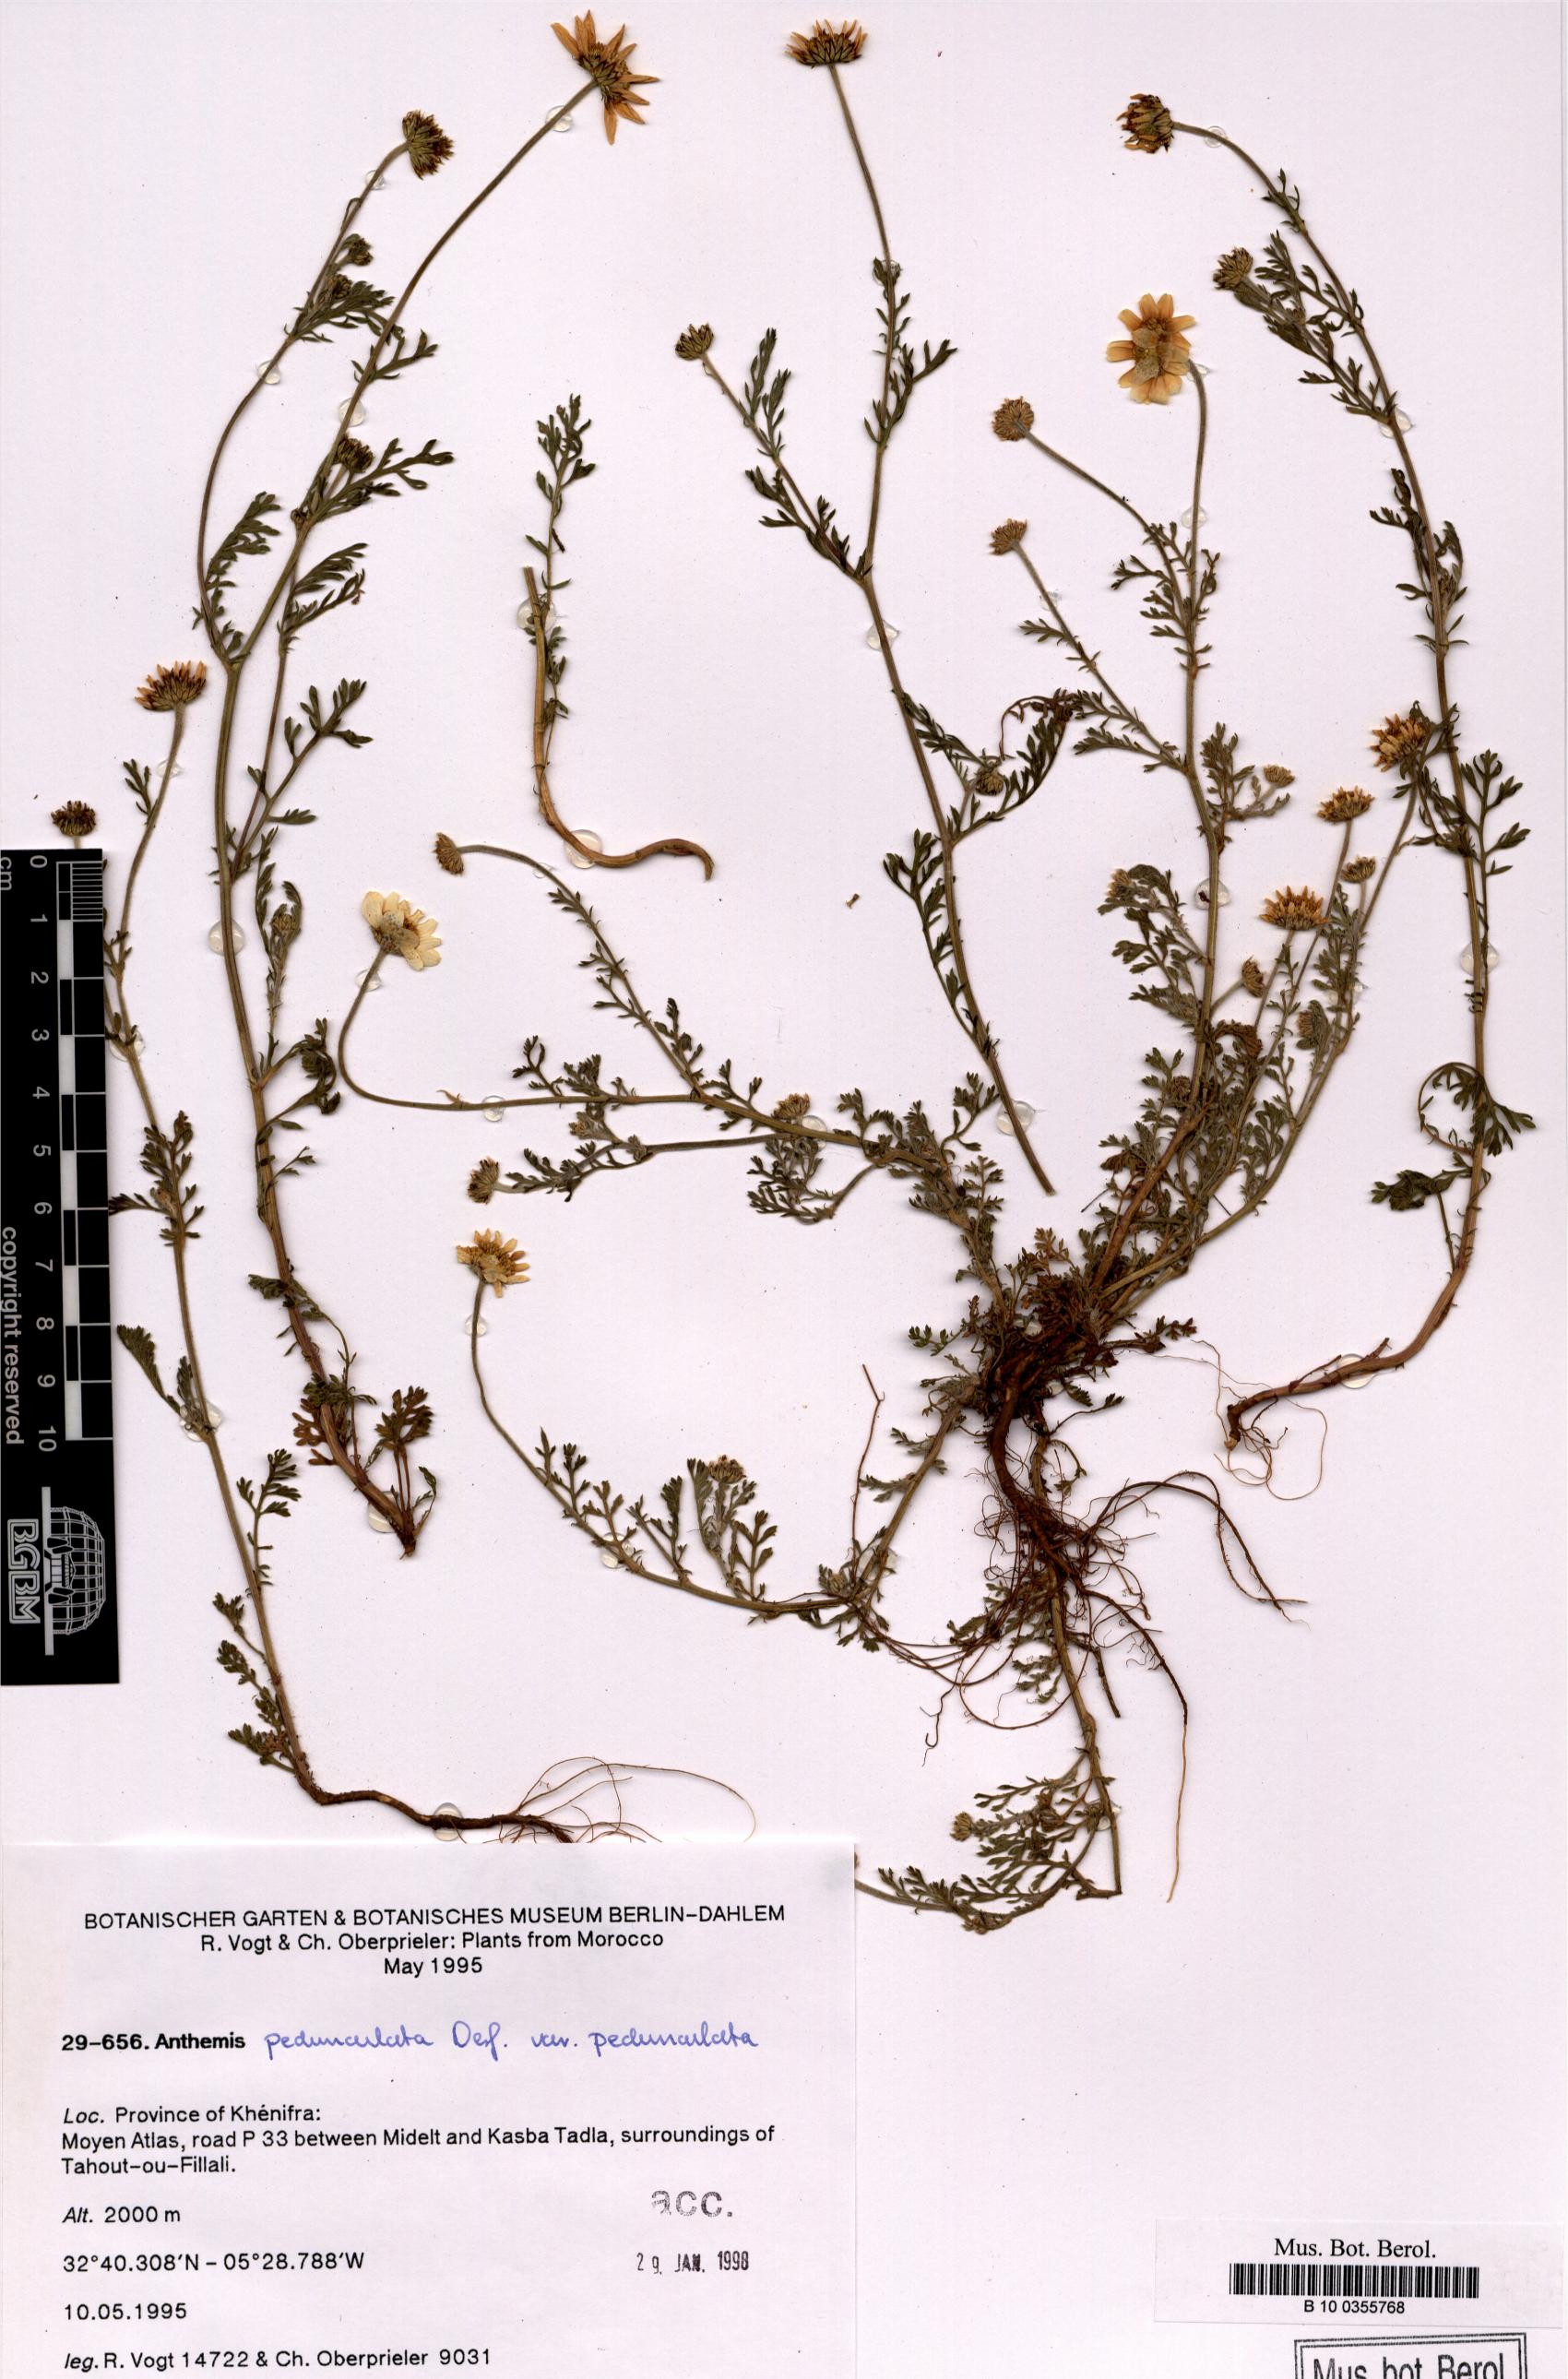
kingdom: Plantae
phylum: Tracheophyta
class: Magnoliopsida
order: Asterales
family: Asteraceae
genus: Anthemis
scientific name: Anthemis pedunculata
